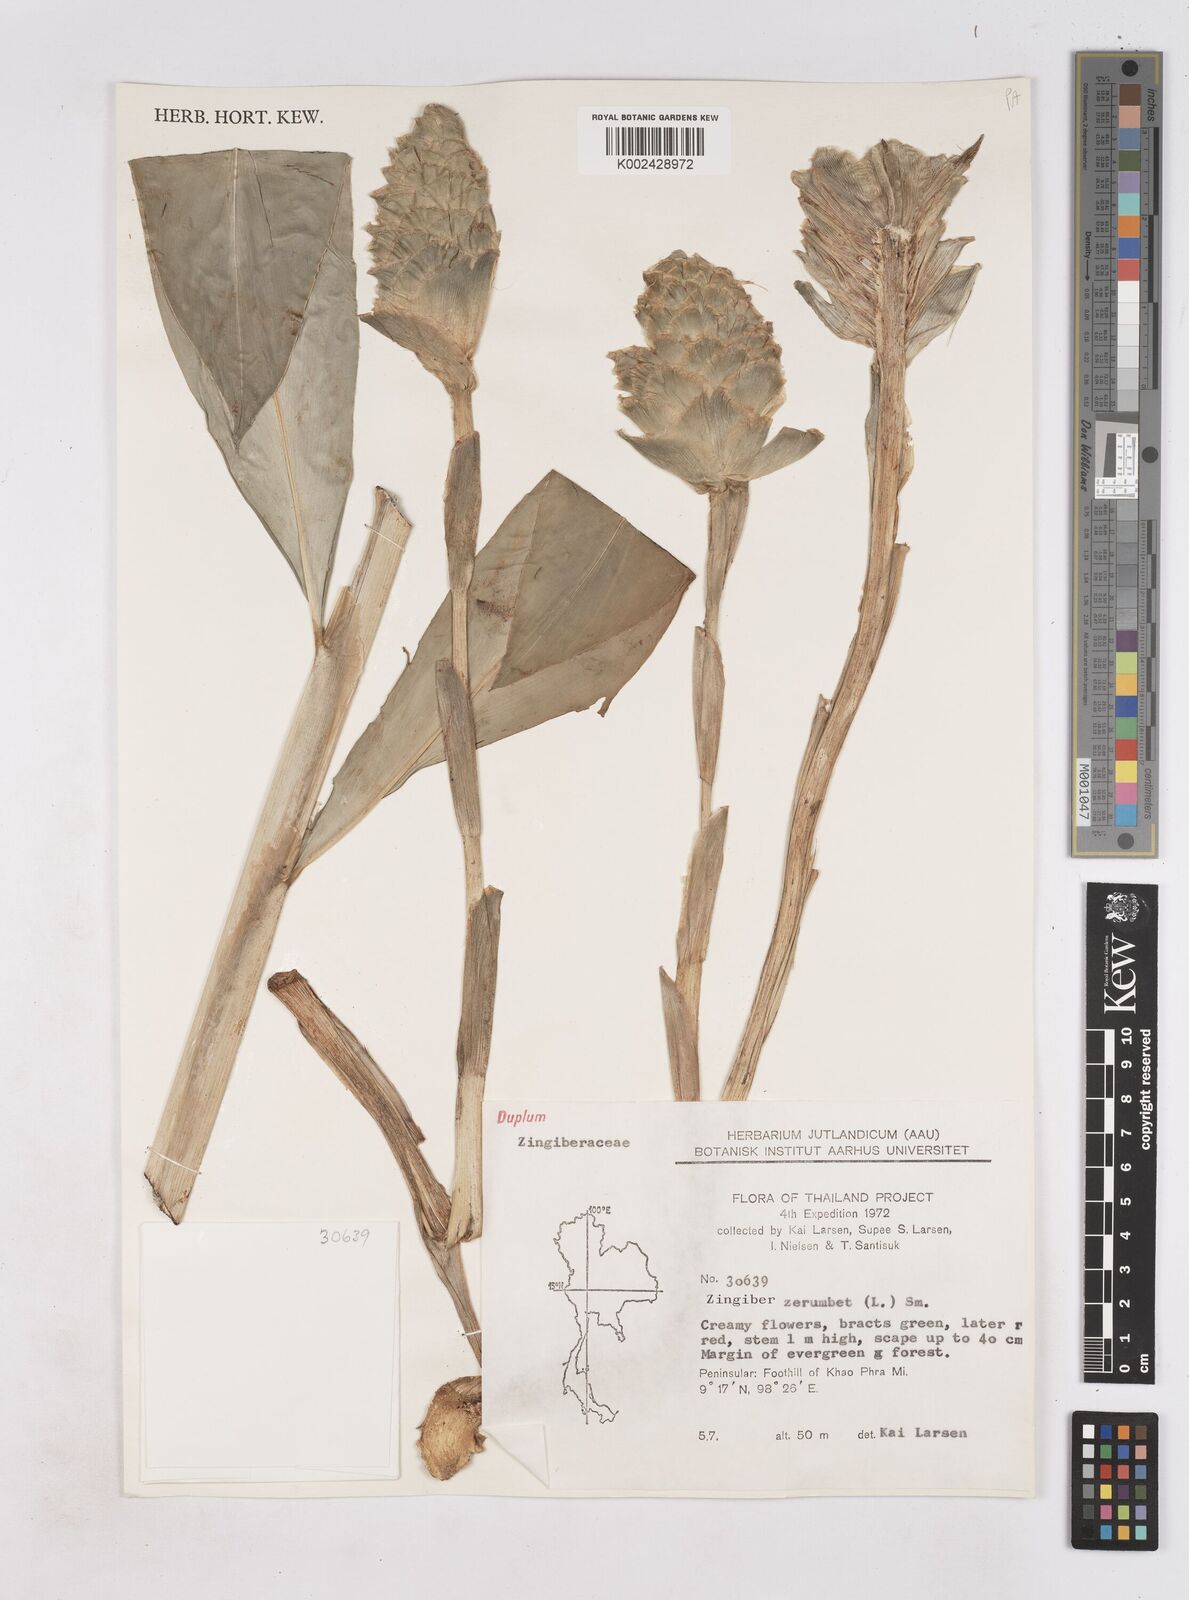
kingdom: Plantae
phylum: Tracheophyta
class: Liliopsida
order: Zingiberales
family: Zingiberaceae
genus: Zingiber
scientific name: Zingiber zerumbet
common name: Bitter ginger
